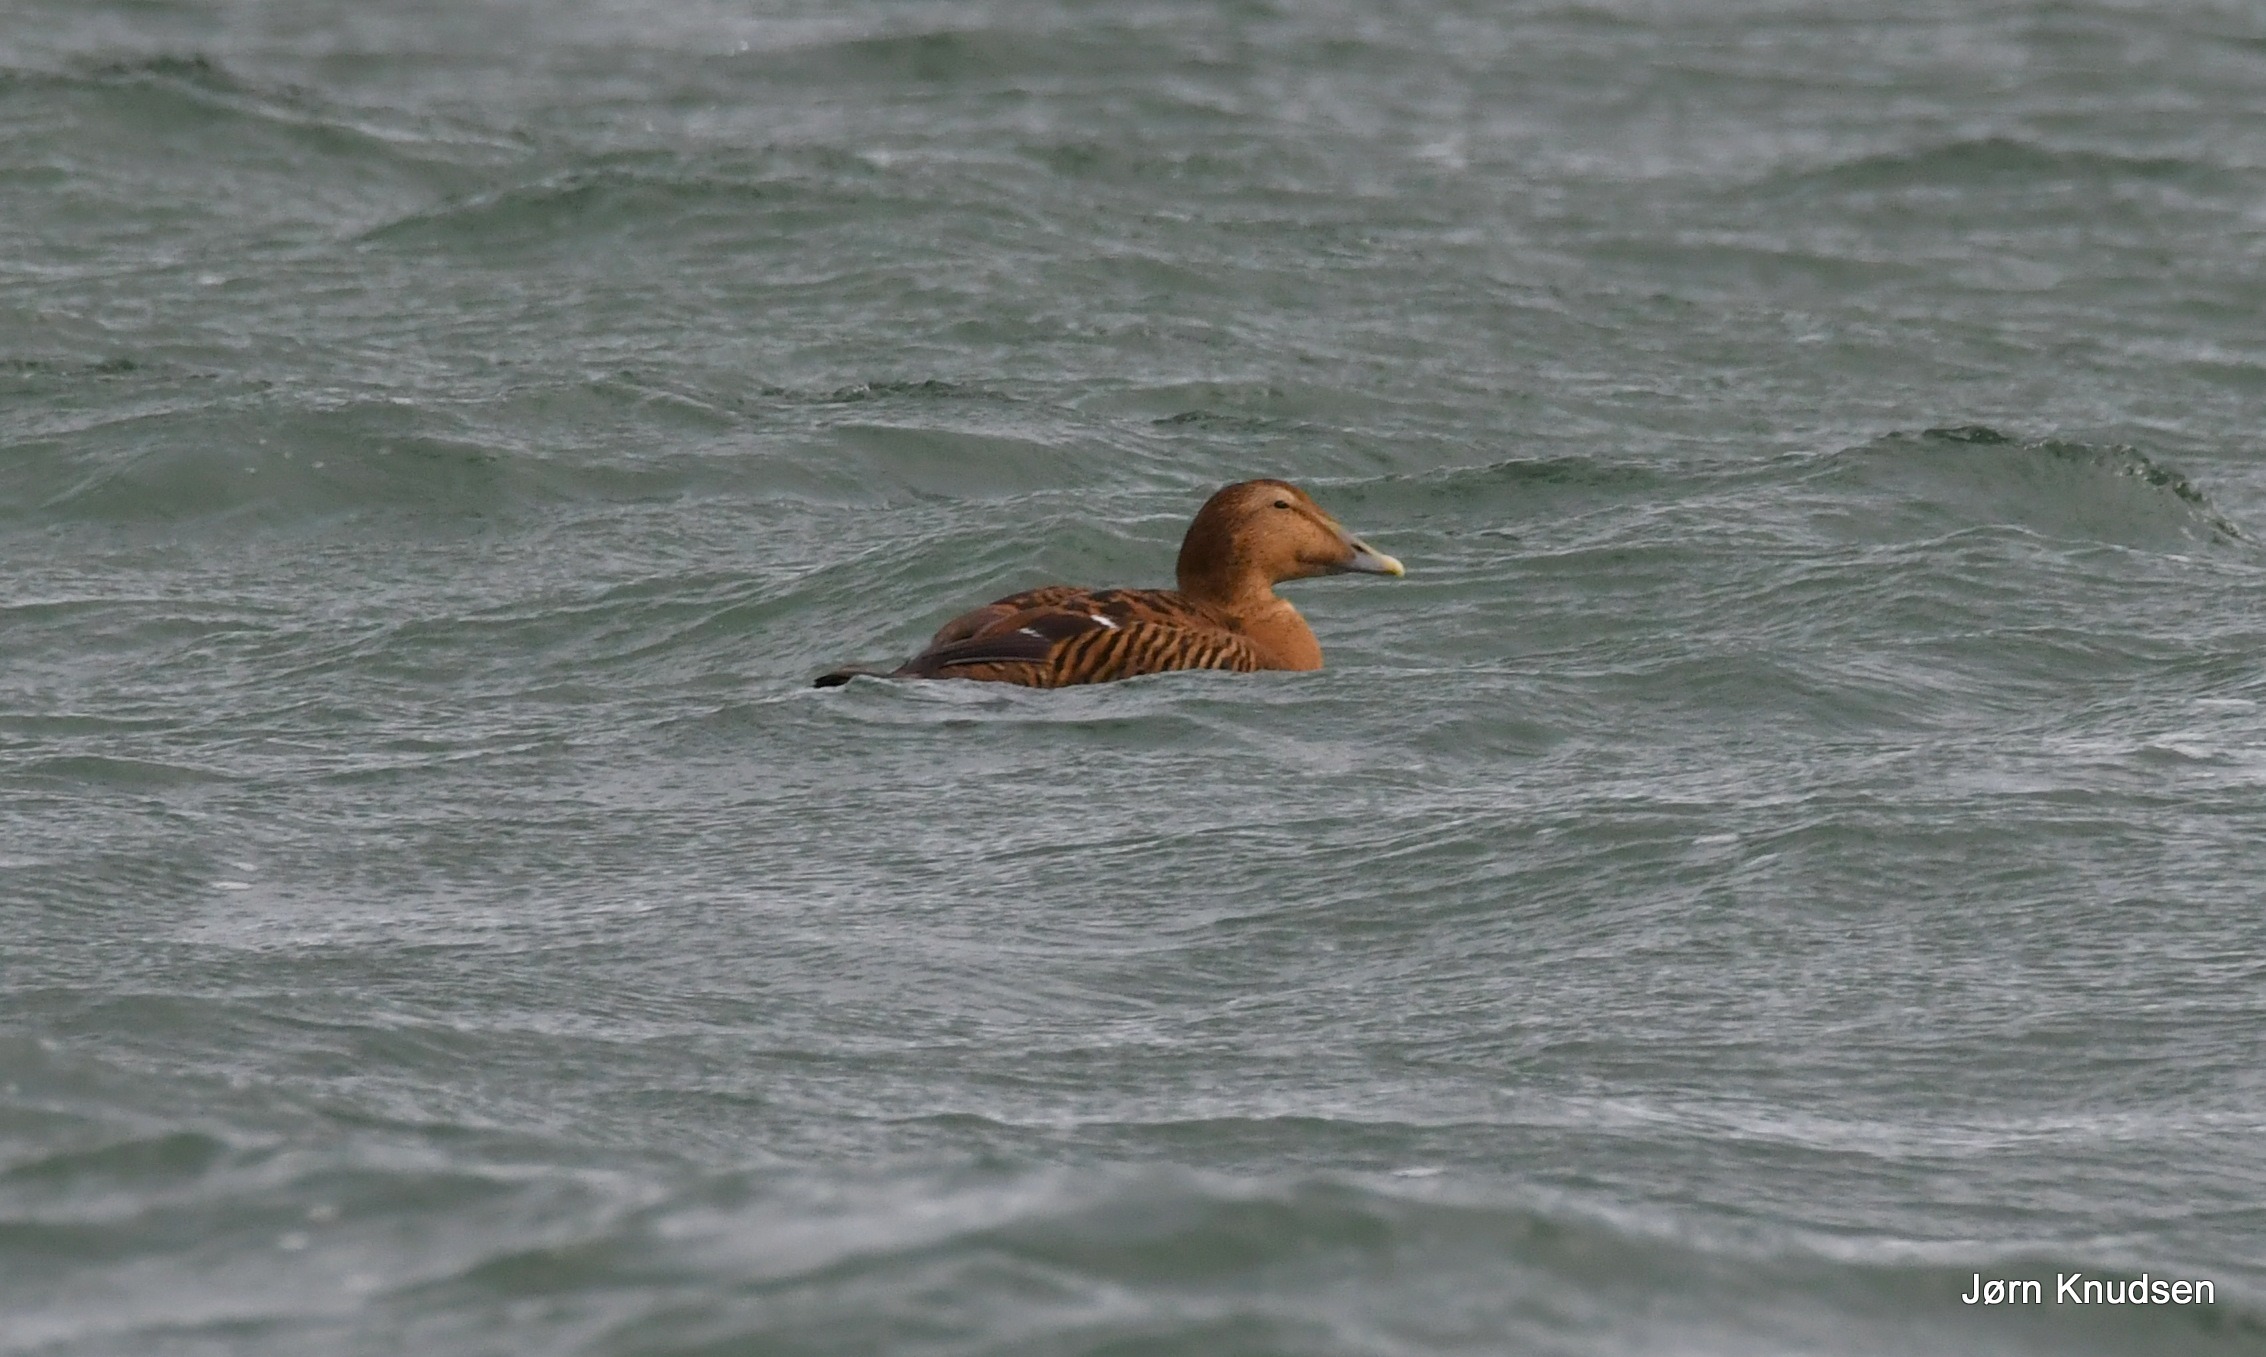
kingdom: Animalia
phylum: Chordata
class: Aves
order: Anseriformes
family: Anatidae
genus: Somateria
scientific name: Somateria mollissima
